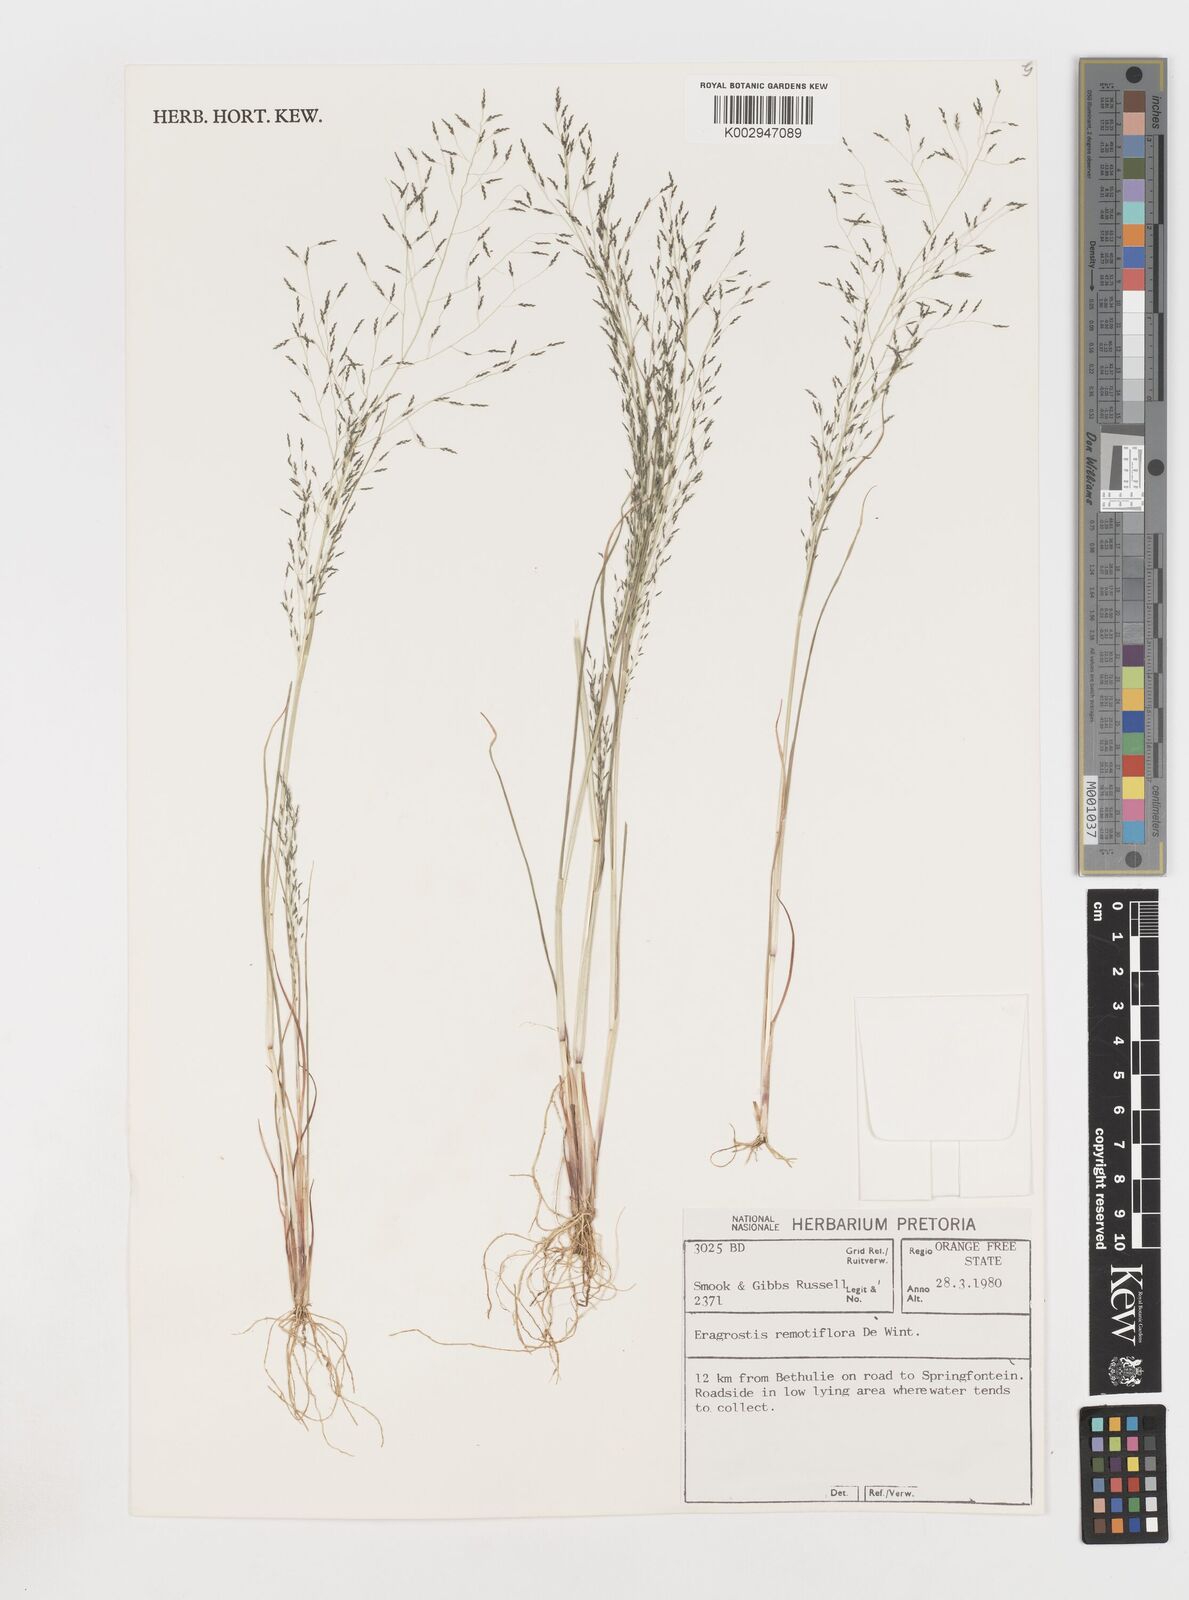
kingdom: Plantae
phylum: Tracheophyta
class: Liliopsida
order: Poales
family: Poaceae
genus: Eragrostis
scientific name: Eragrostis remotiflora
